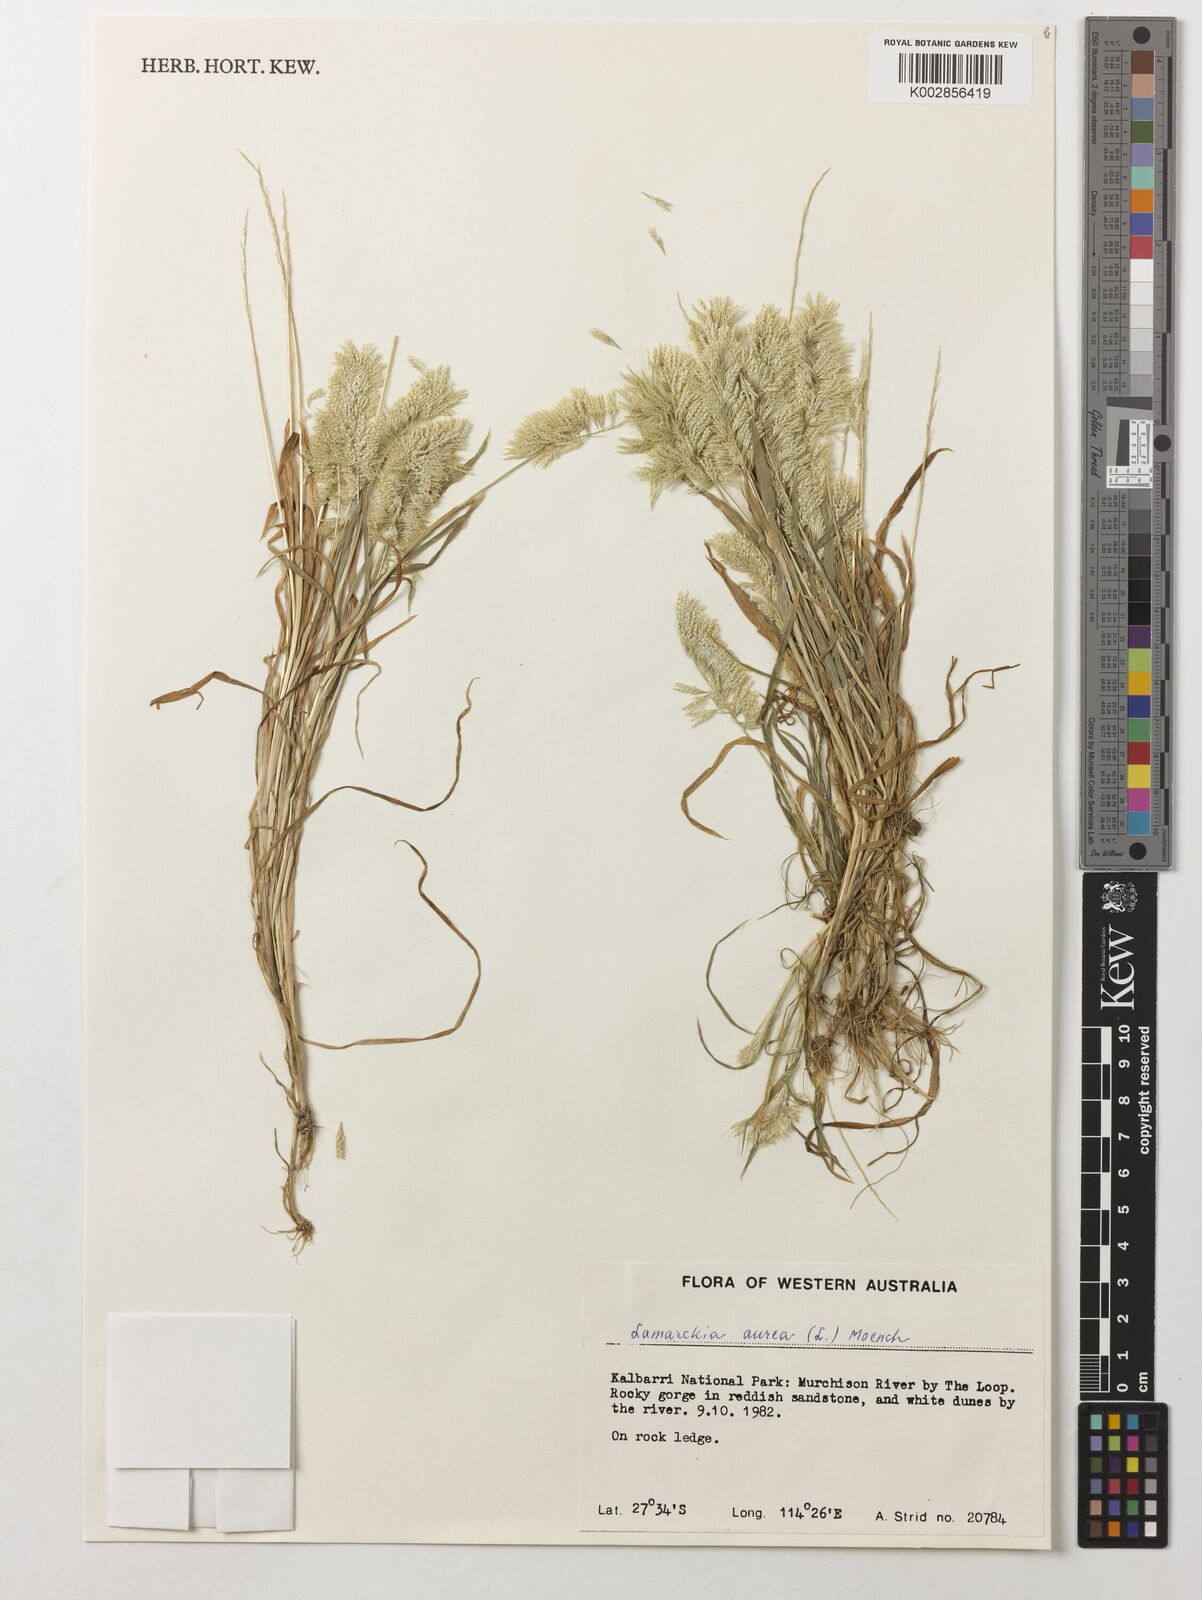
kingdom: Plantae
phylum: Tracheophyta
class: Liliopsida
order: Poales
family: Poaceae
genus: Lamarckia
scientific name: Lamarckia aurea
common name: Golden dog's-tail
